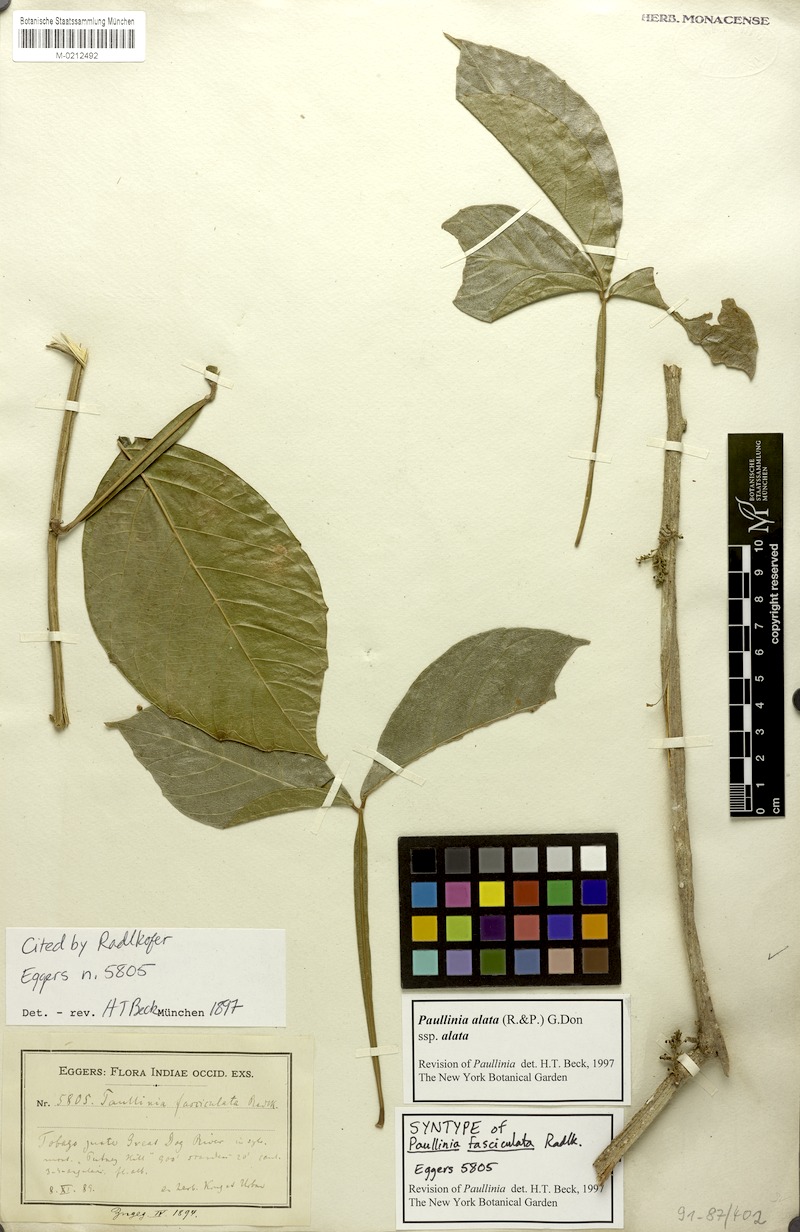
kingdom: Plantae
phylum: Tracheophyta
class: Magnoliopsida
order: Sapindales
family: Sapindaceae
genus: Paullinia
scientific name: Paullinia alata
